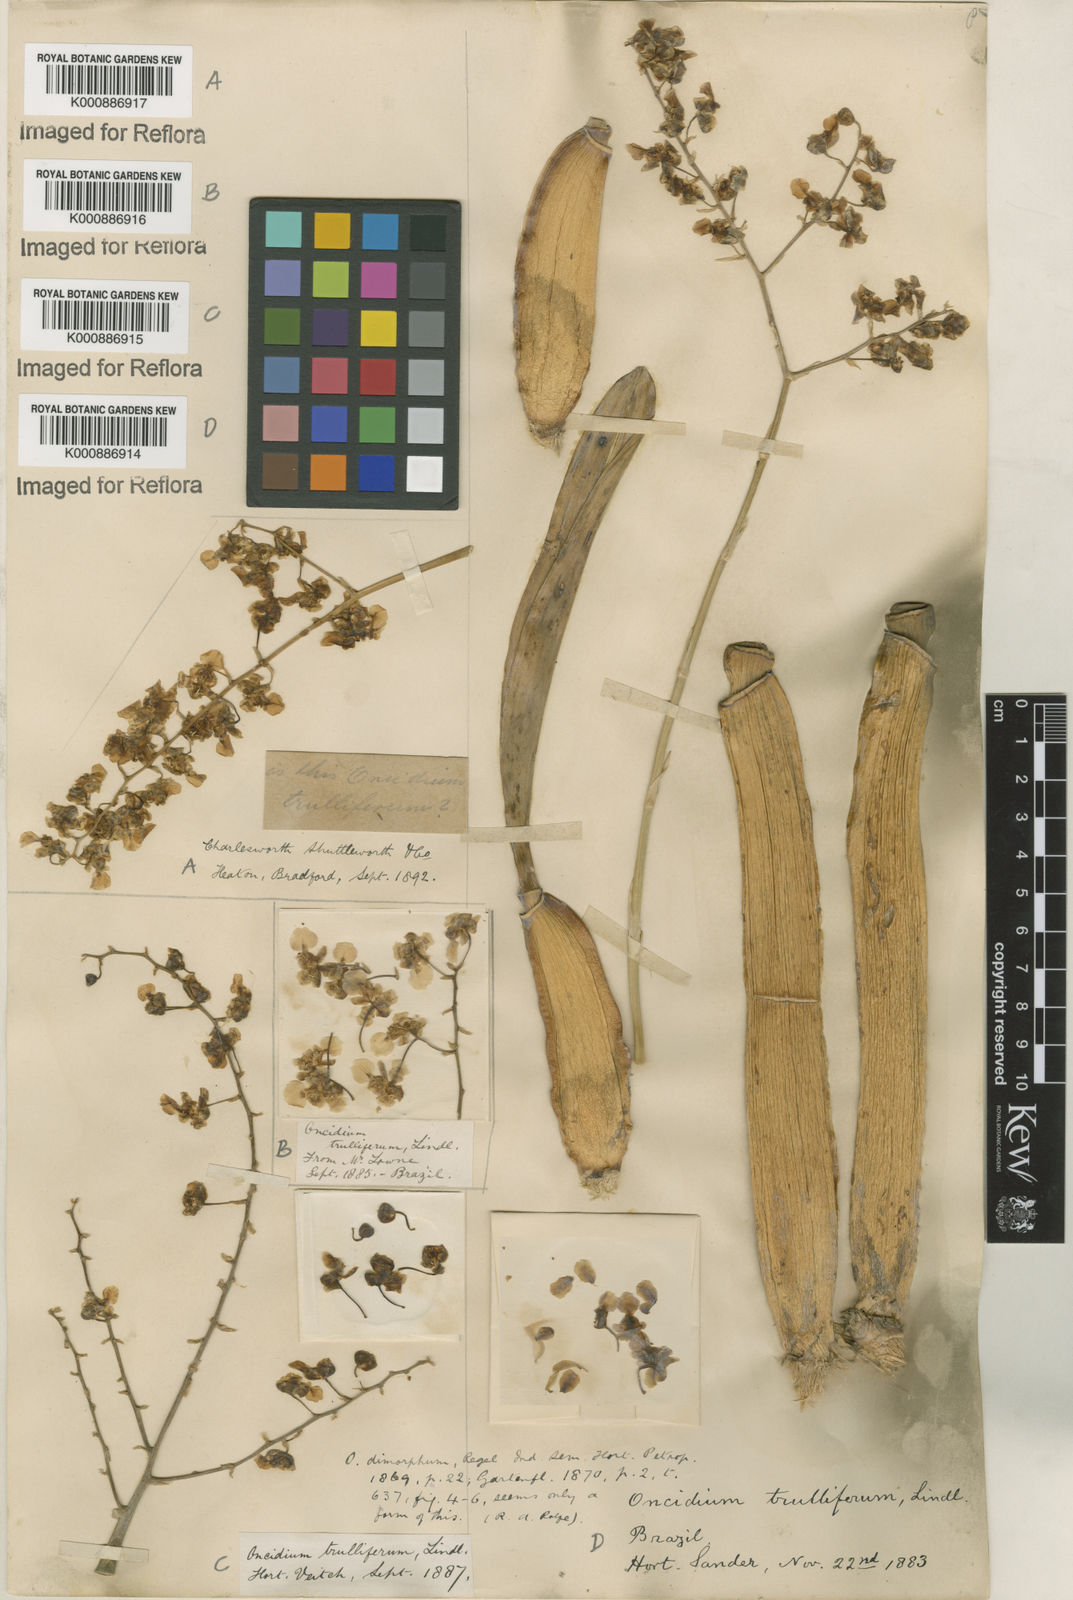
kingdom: Plantae
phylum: Tracheophyta
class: Liliopsida
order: Asparagales
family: Orchidaceae
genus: Gomesa
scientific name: Gomesa venusta
